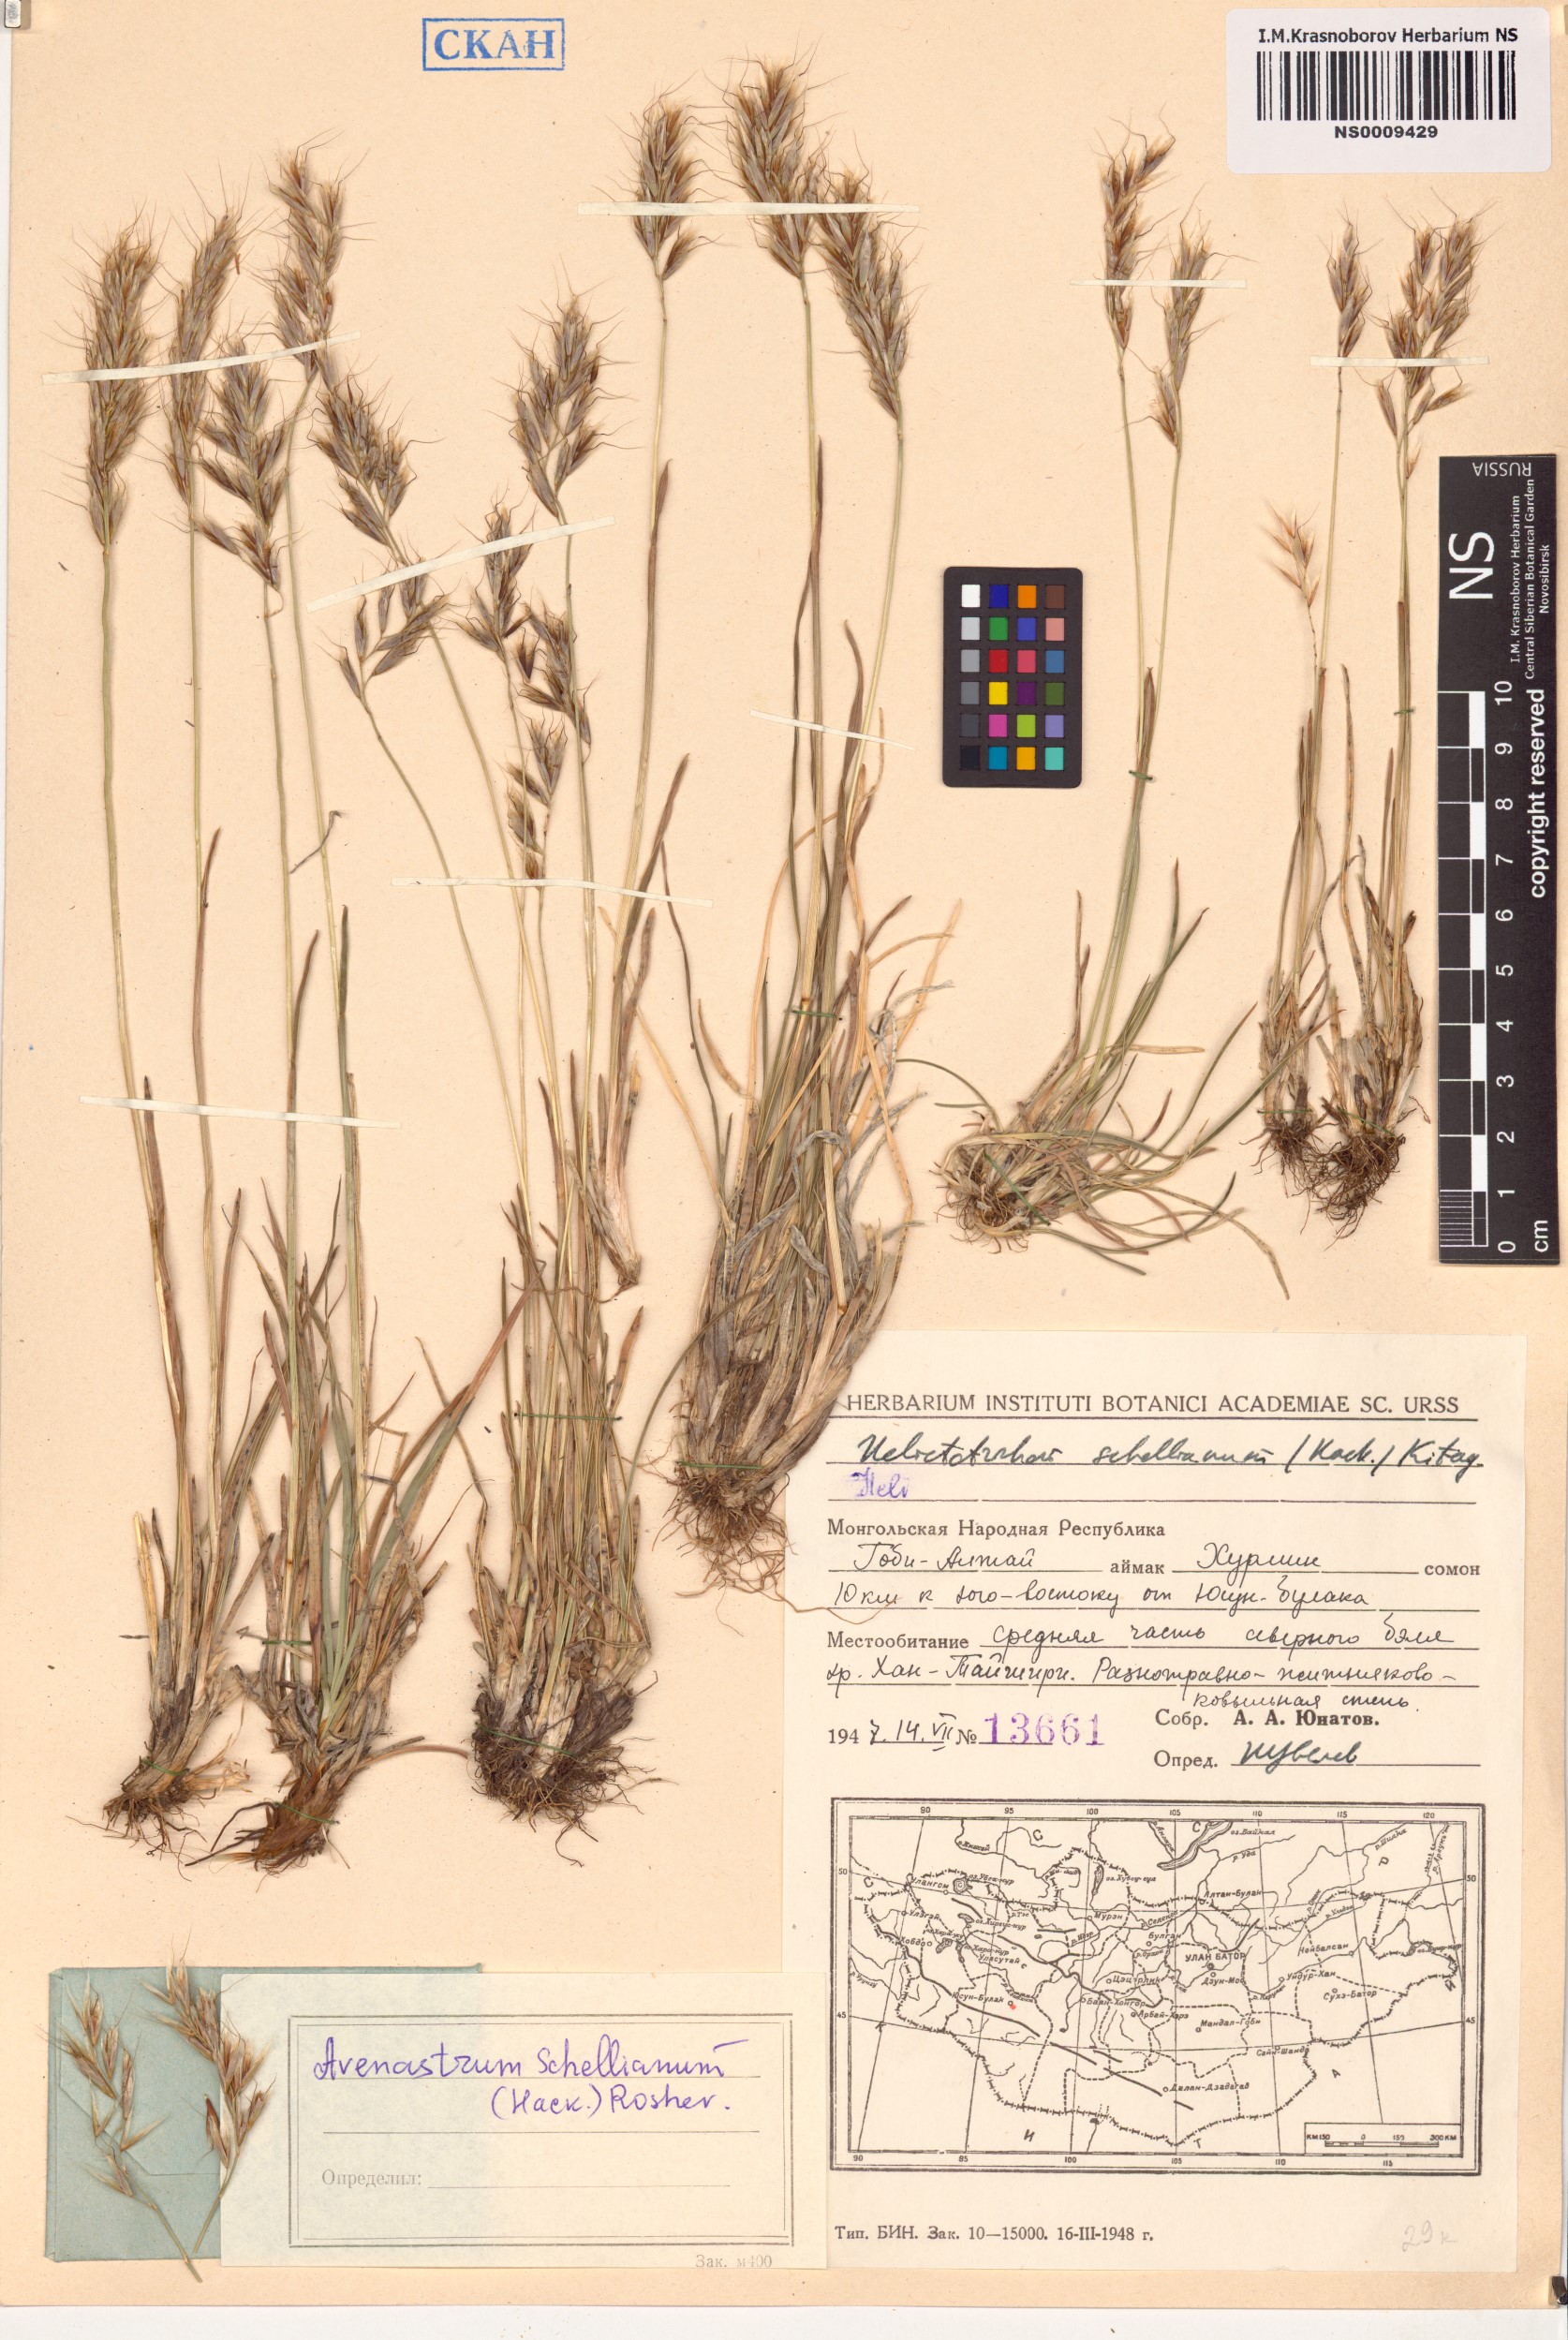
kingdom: Plantae
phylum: Tracheophyta
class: Liliopsida
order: Poales
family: Poaceae
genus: Helictochloa
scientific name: Helictochloa hookeri
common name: Hooker's alpine oatgrass
